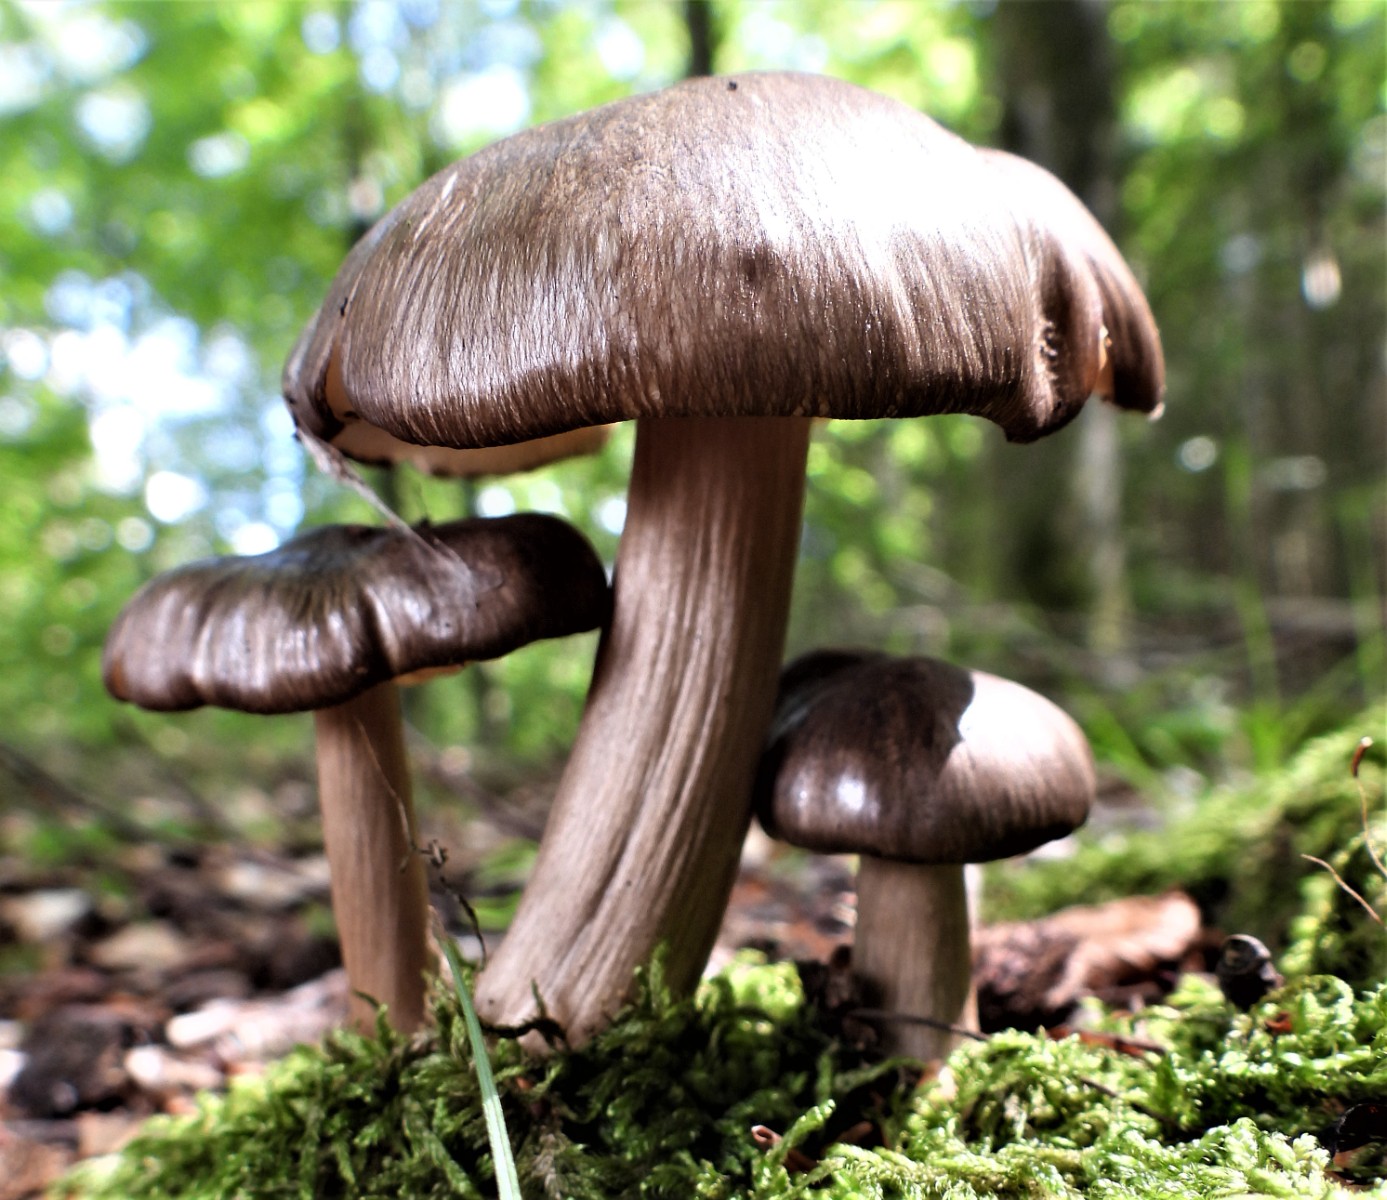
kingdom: Fungi
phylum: Basidiomycota
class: Agaricomycetes
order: Agaricales
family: Tricholomataceae
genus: Megacollybia
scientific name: Megacollybia platyphylla
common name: bredbladet væbnerhat
